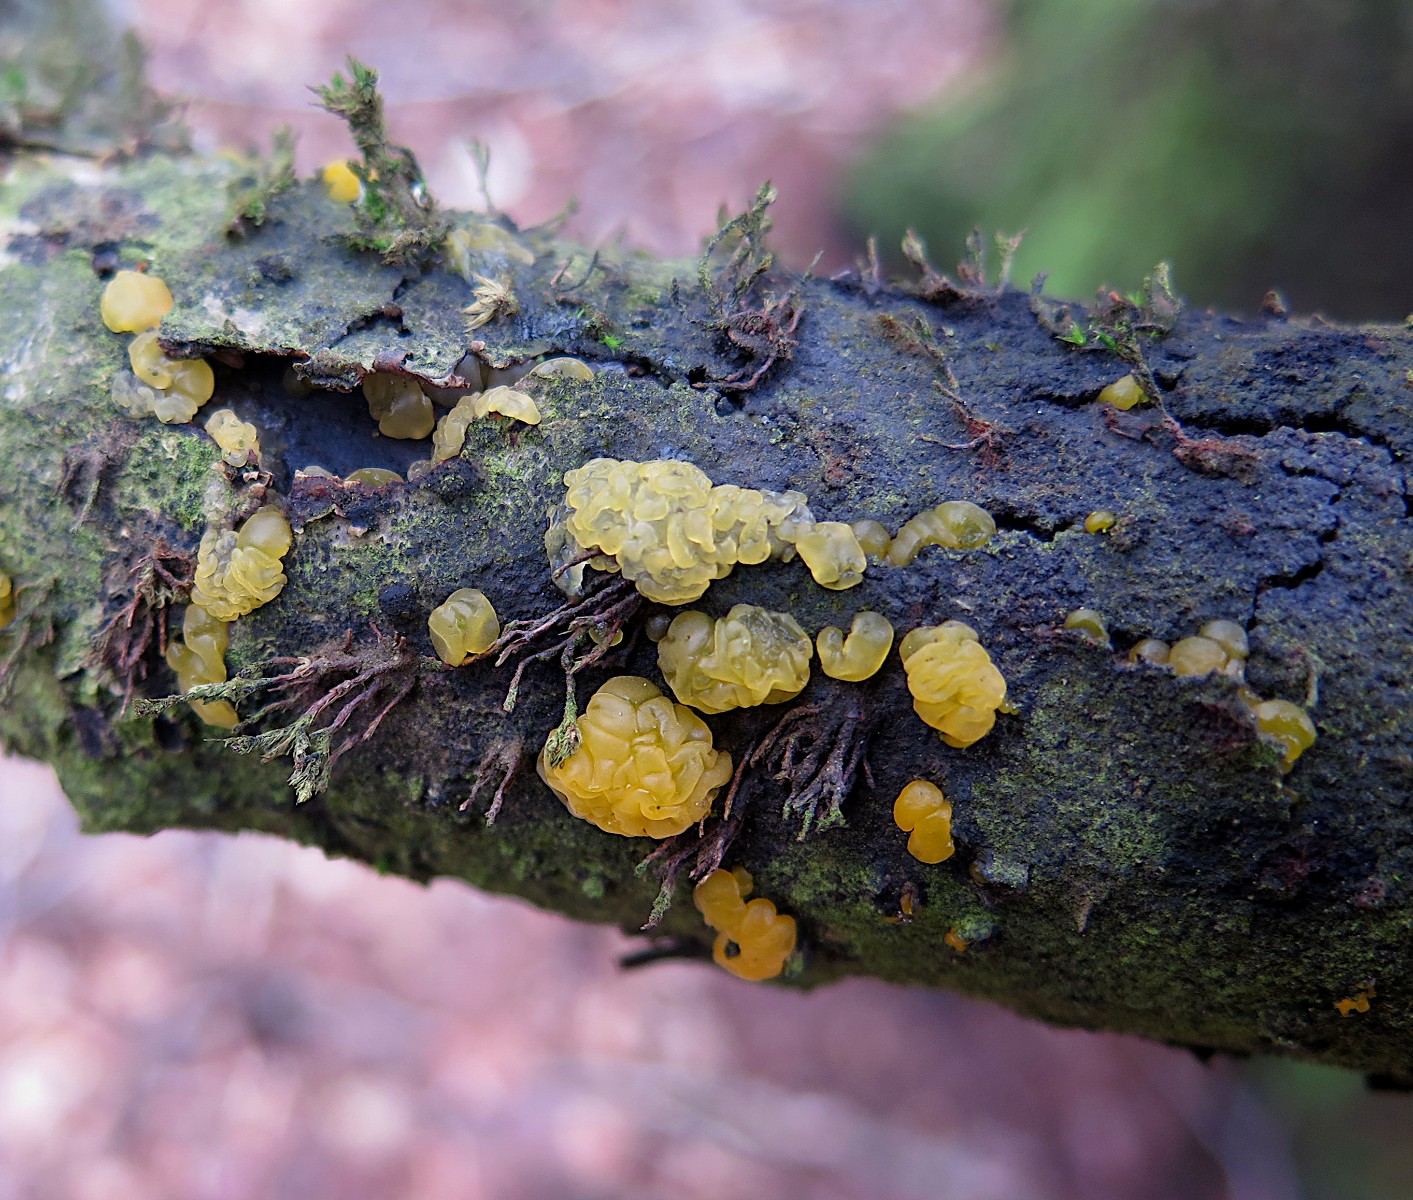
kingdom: Fungi
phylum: Basidiomycota
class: Dacrymycetes
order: Dacrymycetales
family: Dacrymycetaceae
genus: Dacrymyces
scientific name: Dacrymyces lacrymalis
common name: rynket tåresvamp
